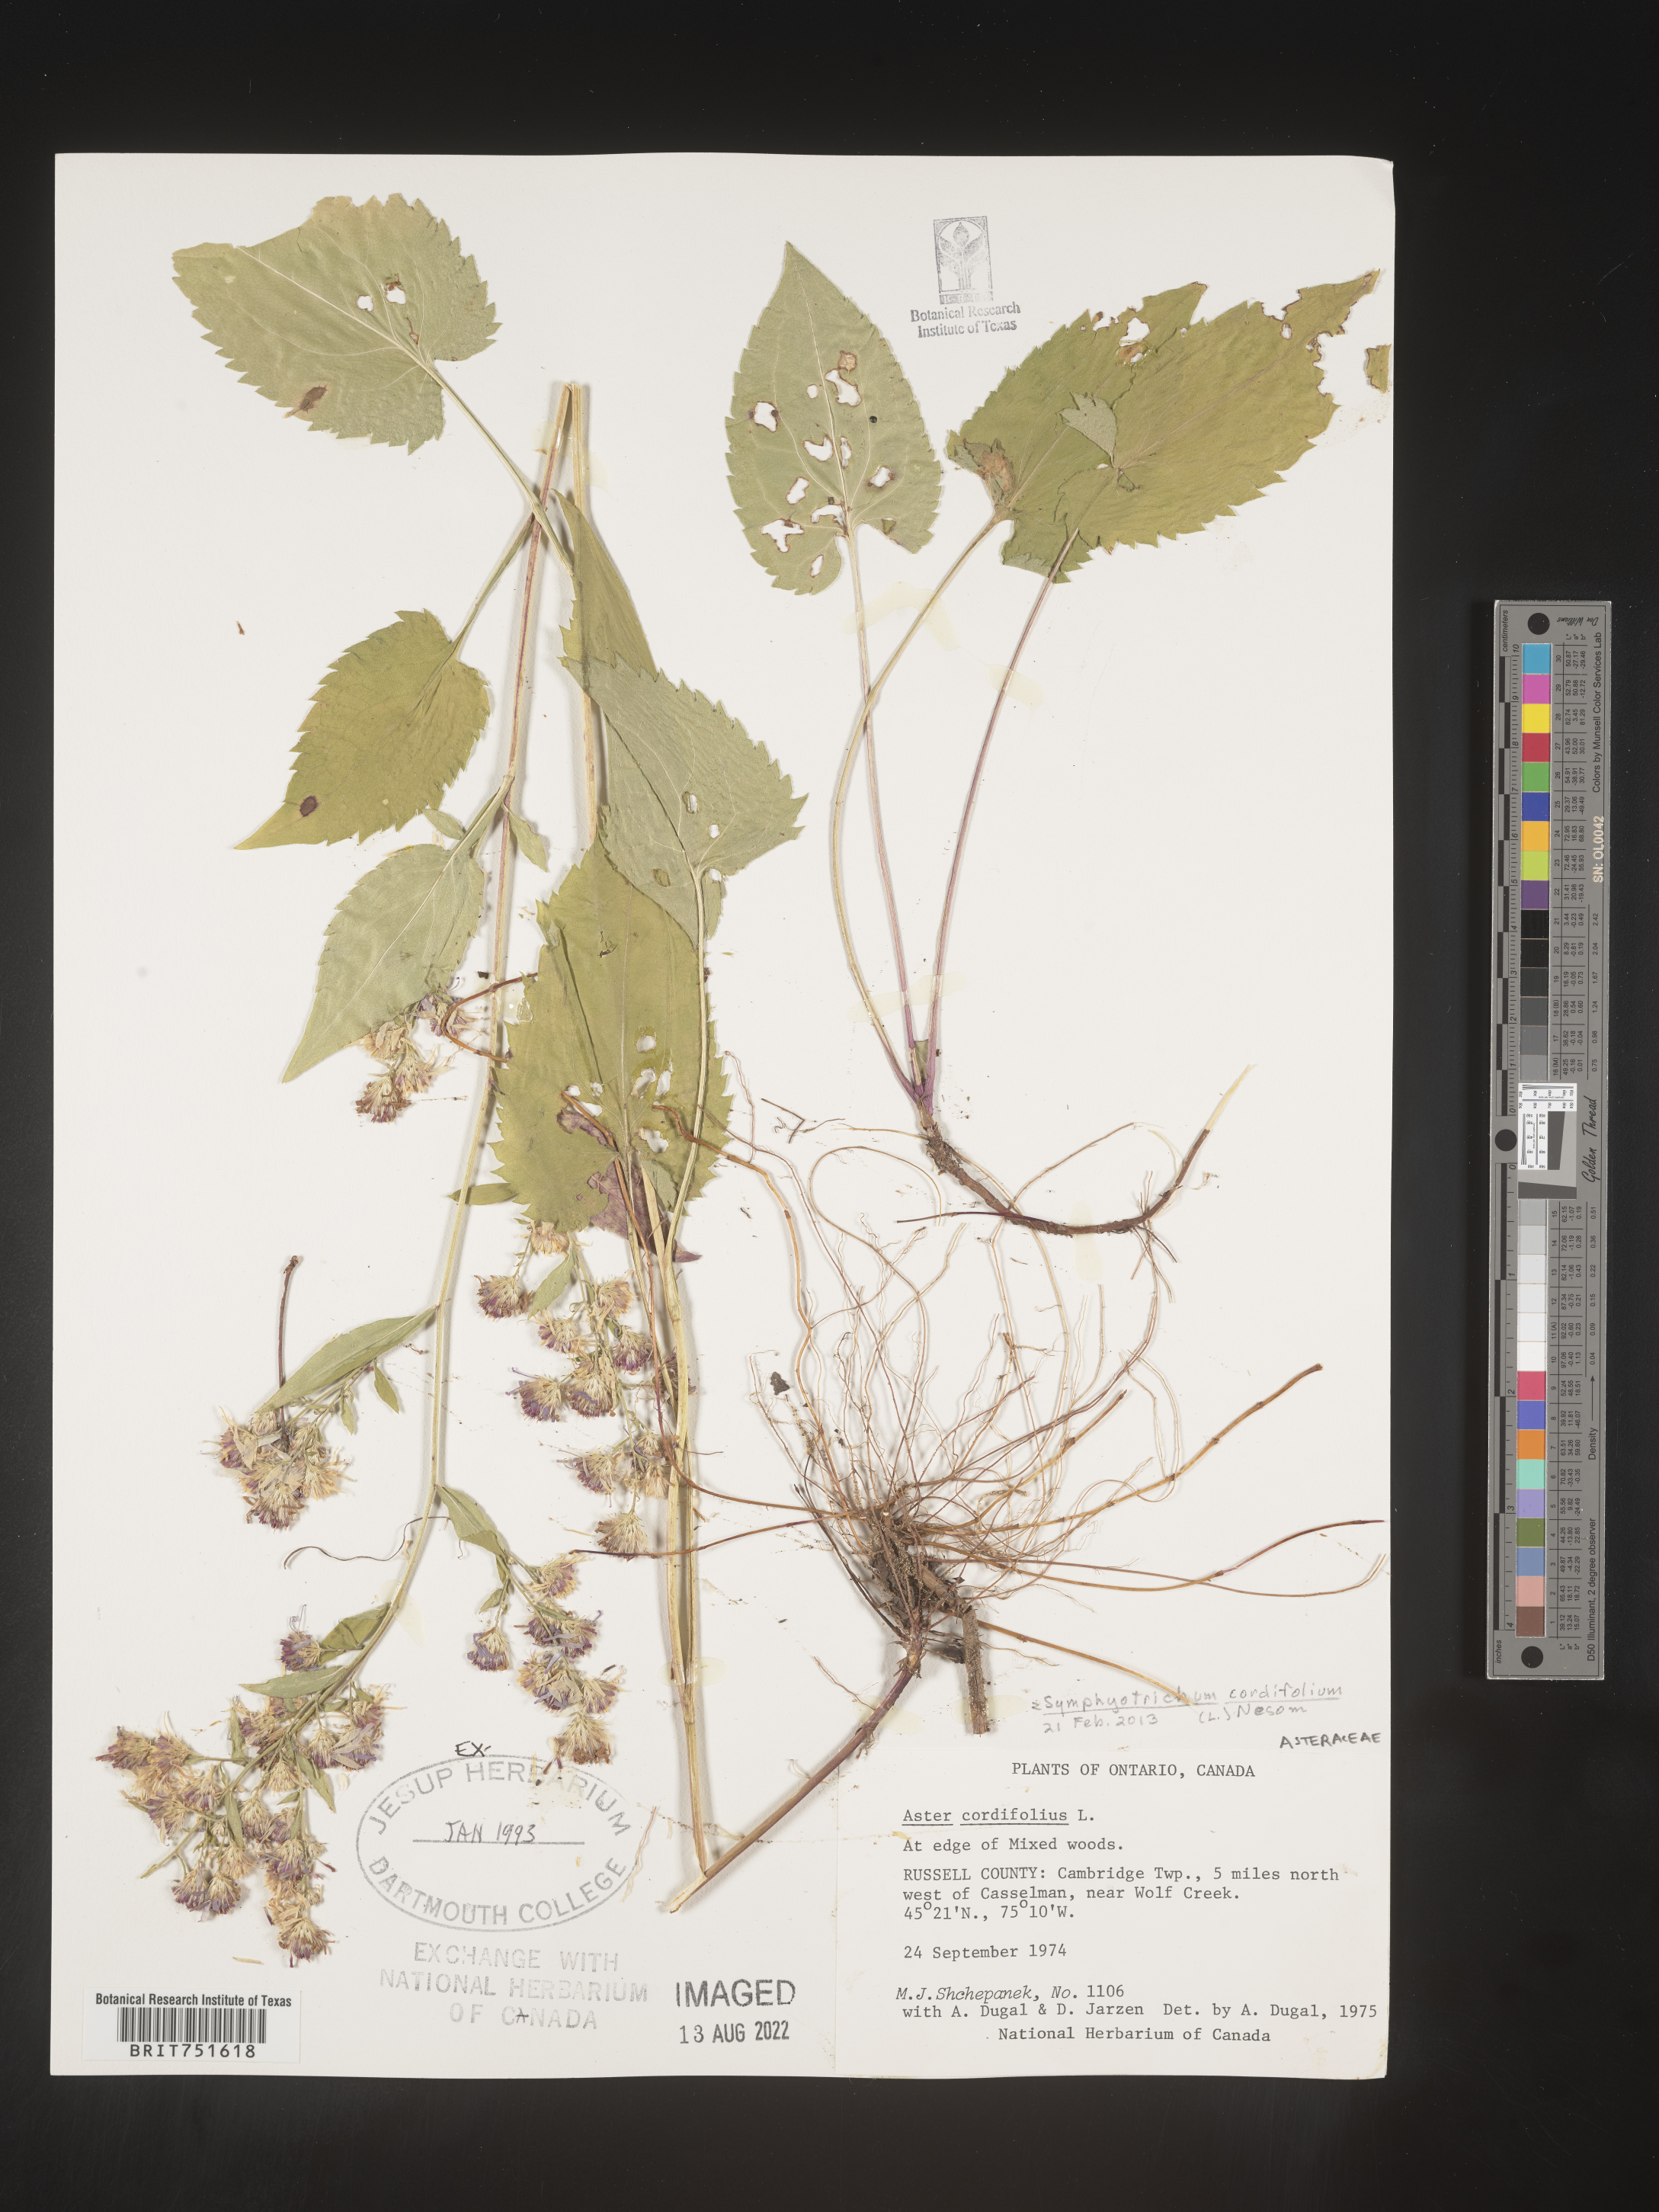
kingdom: Plantae
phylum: Tracheophyta
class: Magnoliopsida
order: Asterales
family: Asteraceae
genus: Symphyotrichum
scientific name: Symphyotrichum cordifolium
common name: Beeweed
